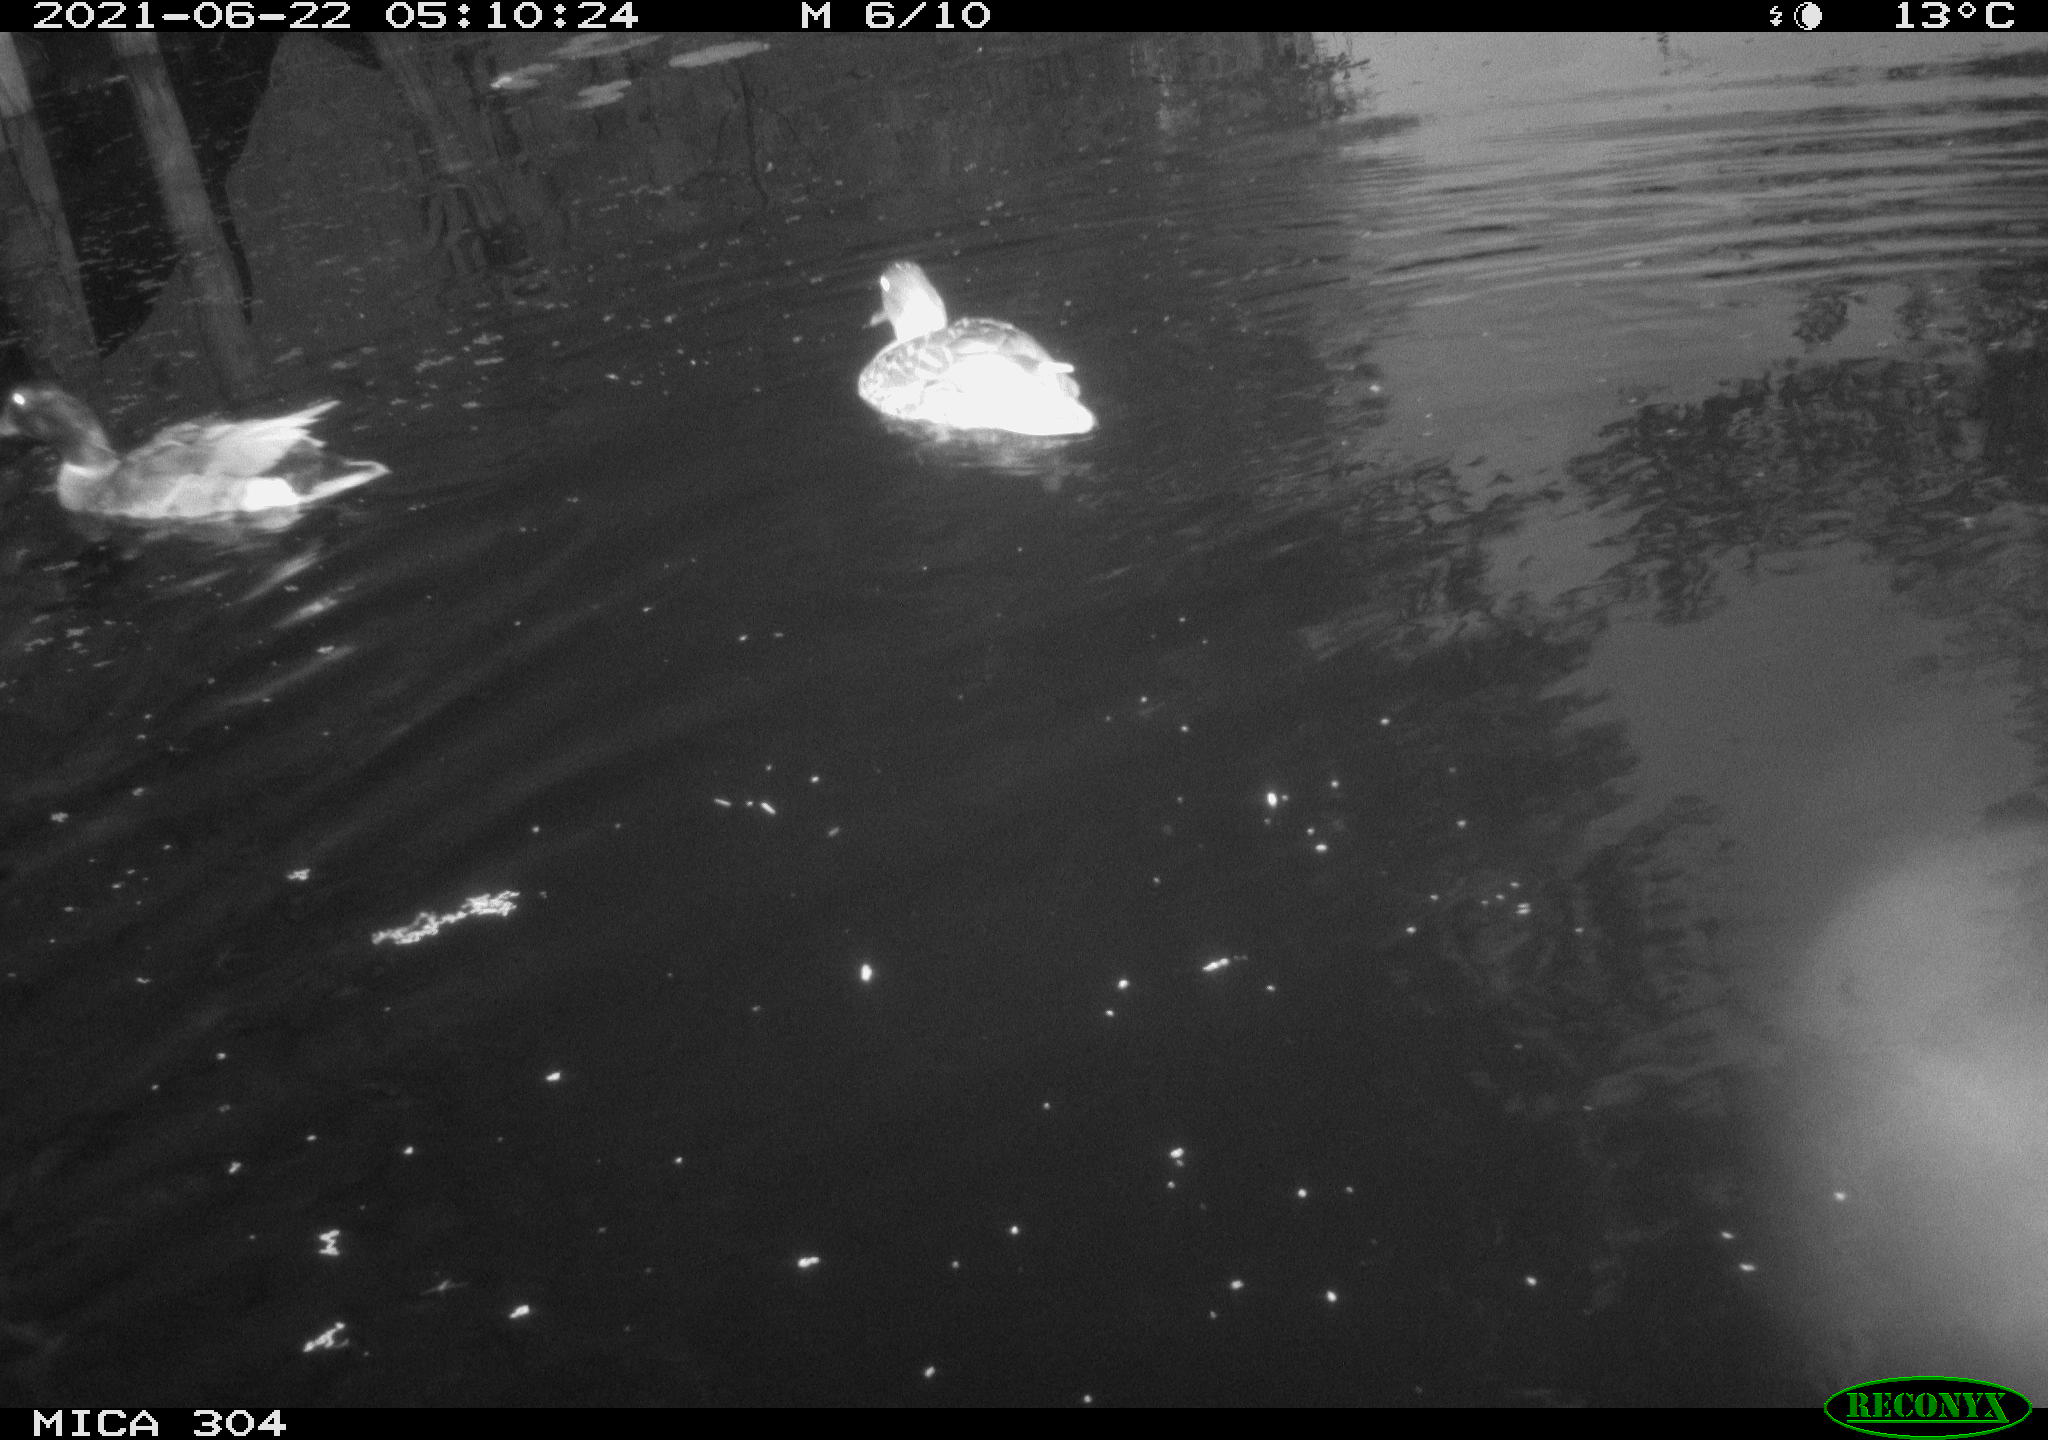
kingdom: Animalia
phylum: Chordata
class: Aves
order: Anseriformes
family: Anatidae
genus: Mareca
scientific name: Mareca strepera
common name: Gadwall
